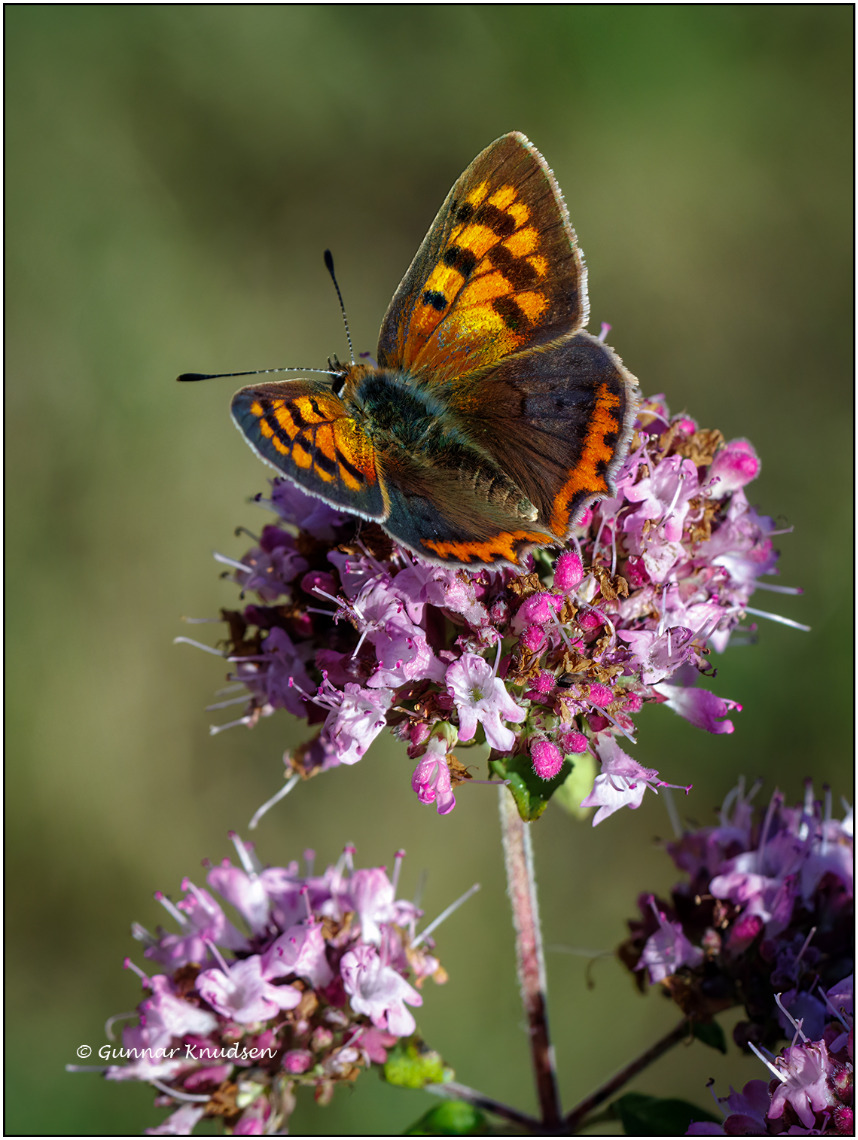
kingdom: Animalia
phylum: Arthropoda
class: Insecta
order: Lepidoptera
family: Lycaenidae
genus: Lycaena
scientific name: Lycaena phlaeas
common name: Lille ildfugl
